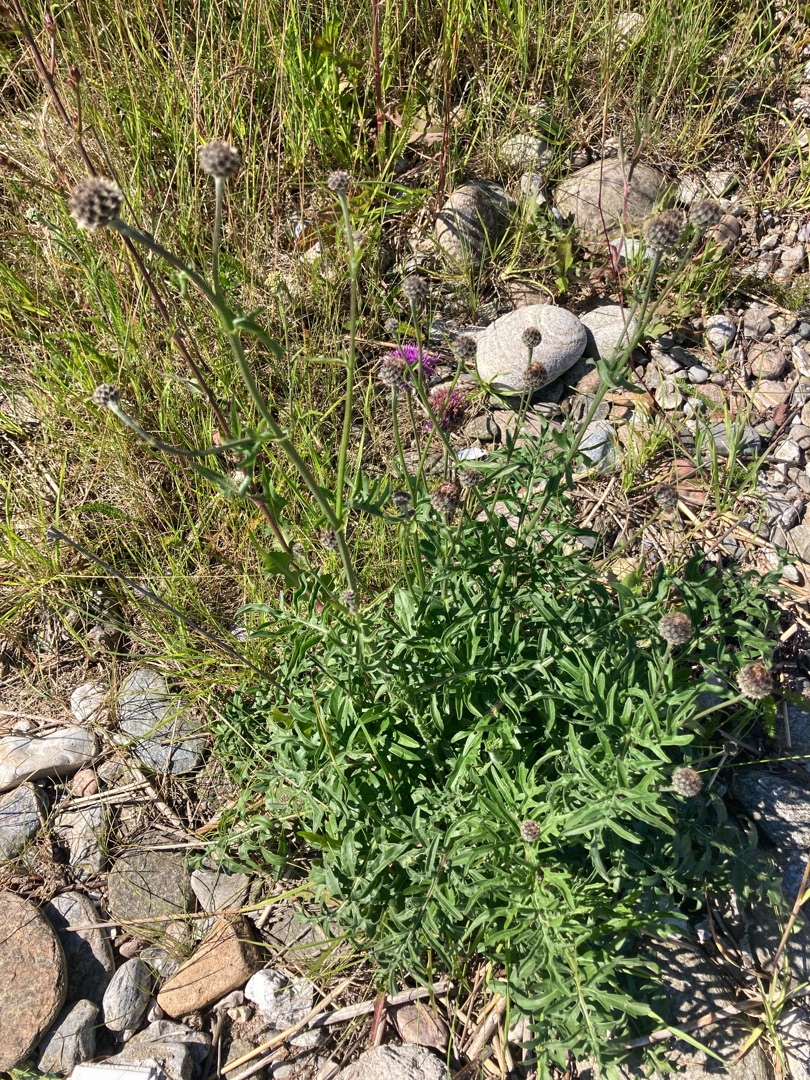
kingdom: Plantae
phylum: Tracheophyta
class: Magnoliopsida
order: Asterales
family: Asteraceae
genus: Centaurea
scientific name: Centaurea scabiosa
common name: Stor knopurt
